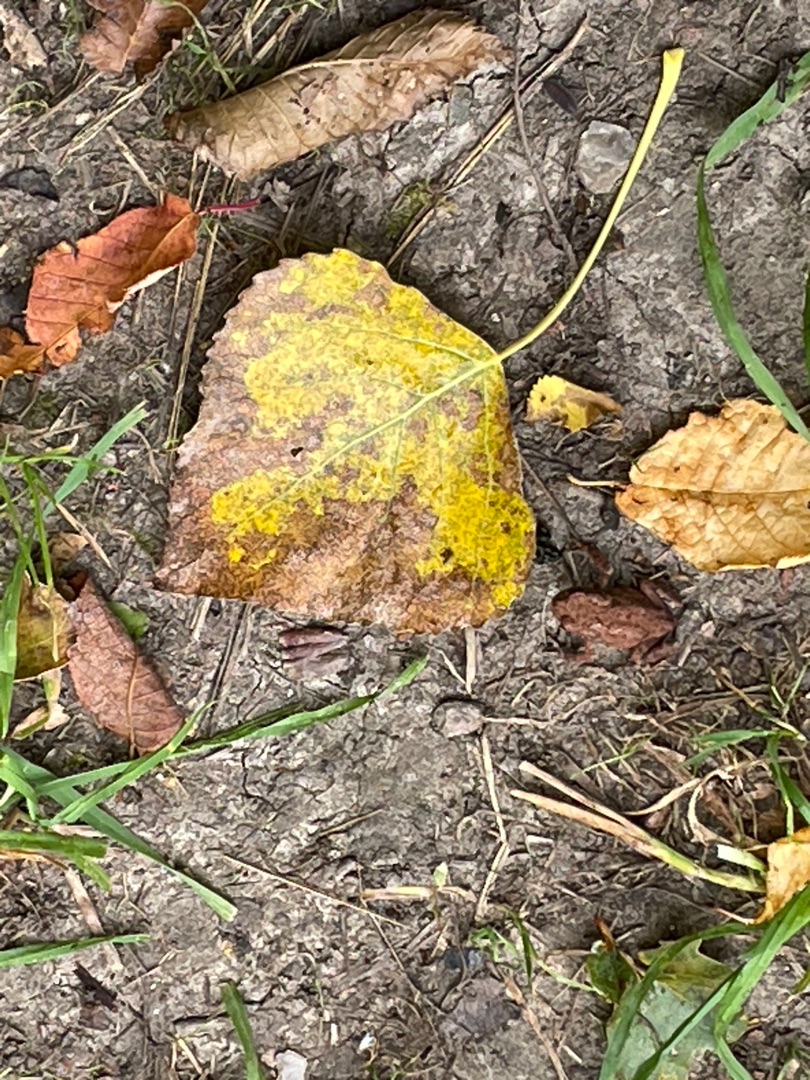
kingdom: Animalia
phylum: Chordata
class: Amphibia
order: Anura
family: Bufonidae
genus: Bufo
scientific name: Bufo bufo
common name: Skrubtudse
